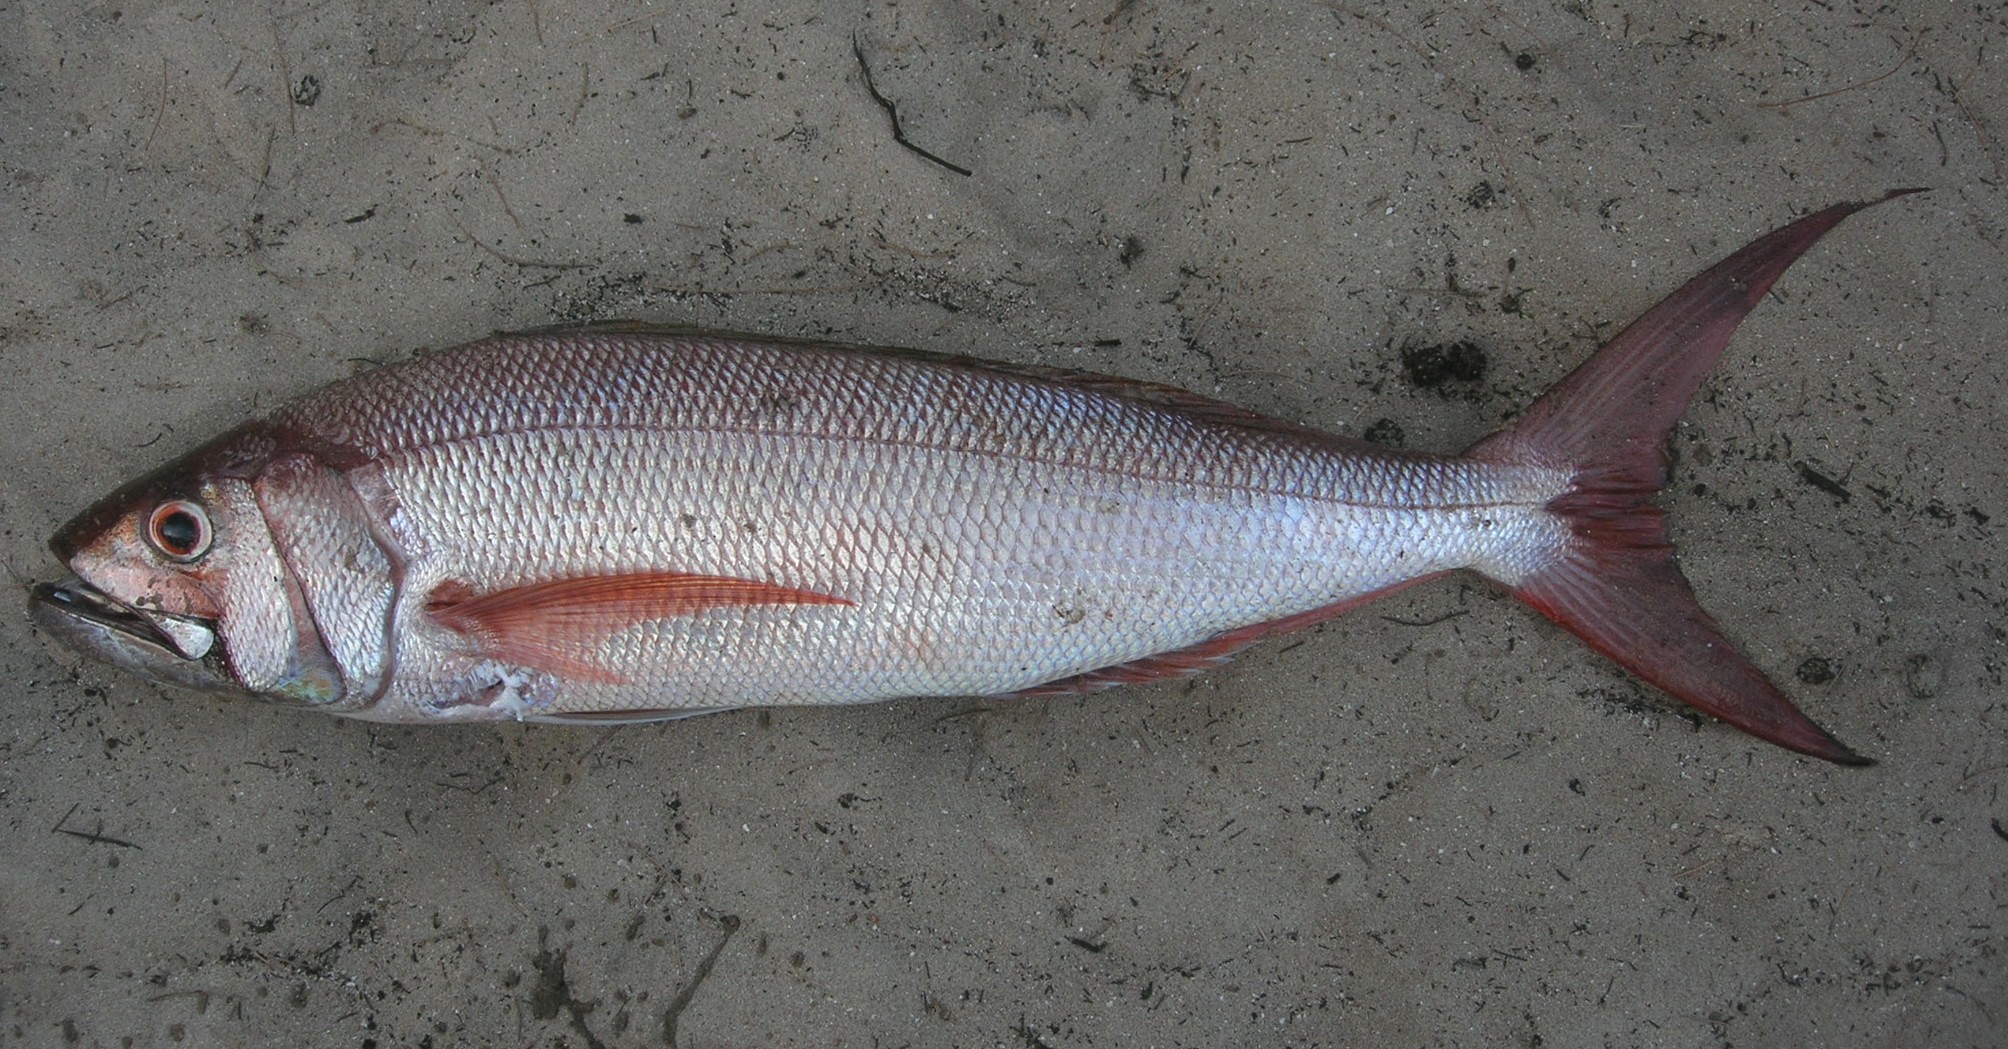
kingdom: Animalia
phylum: Chordata
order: Perciformes
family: Lutjanidae
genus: Aphareus
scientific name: Aphareus rutilans
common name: Rusty jobfish
